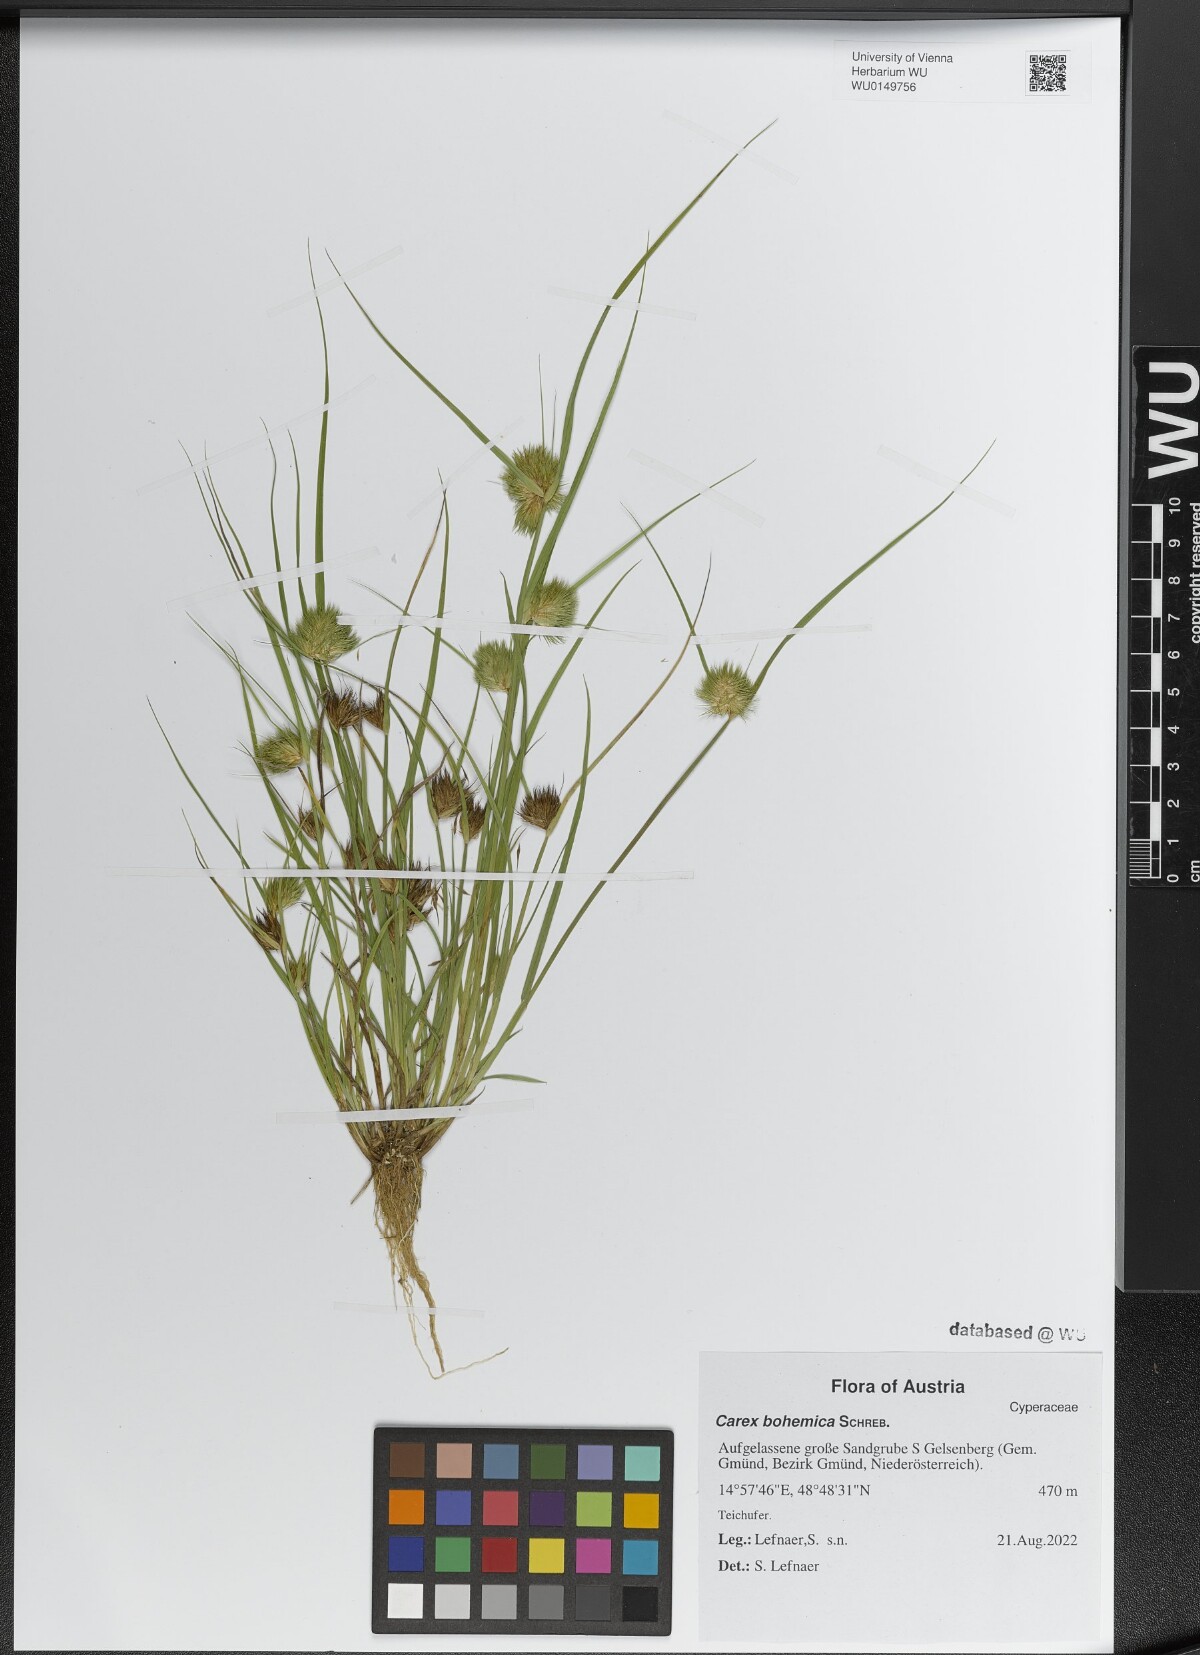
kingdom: Plantae
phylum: Tracheophyta
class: Liliopsida
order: Poales
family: Cyperaceae
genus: Carex
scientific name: Carex bohemica
